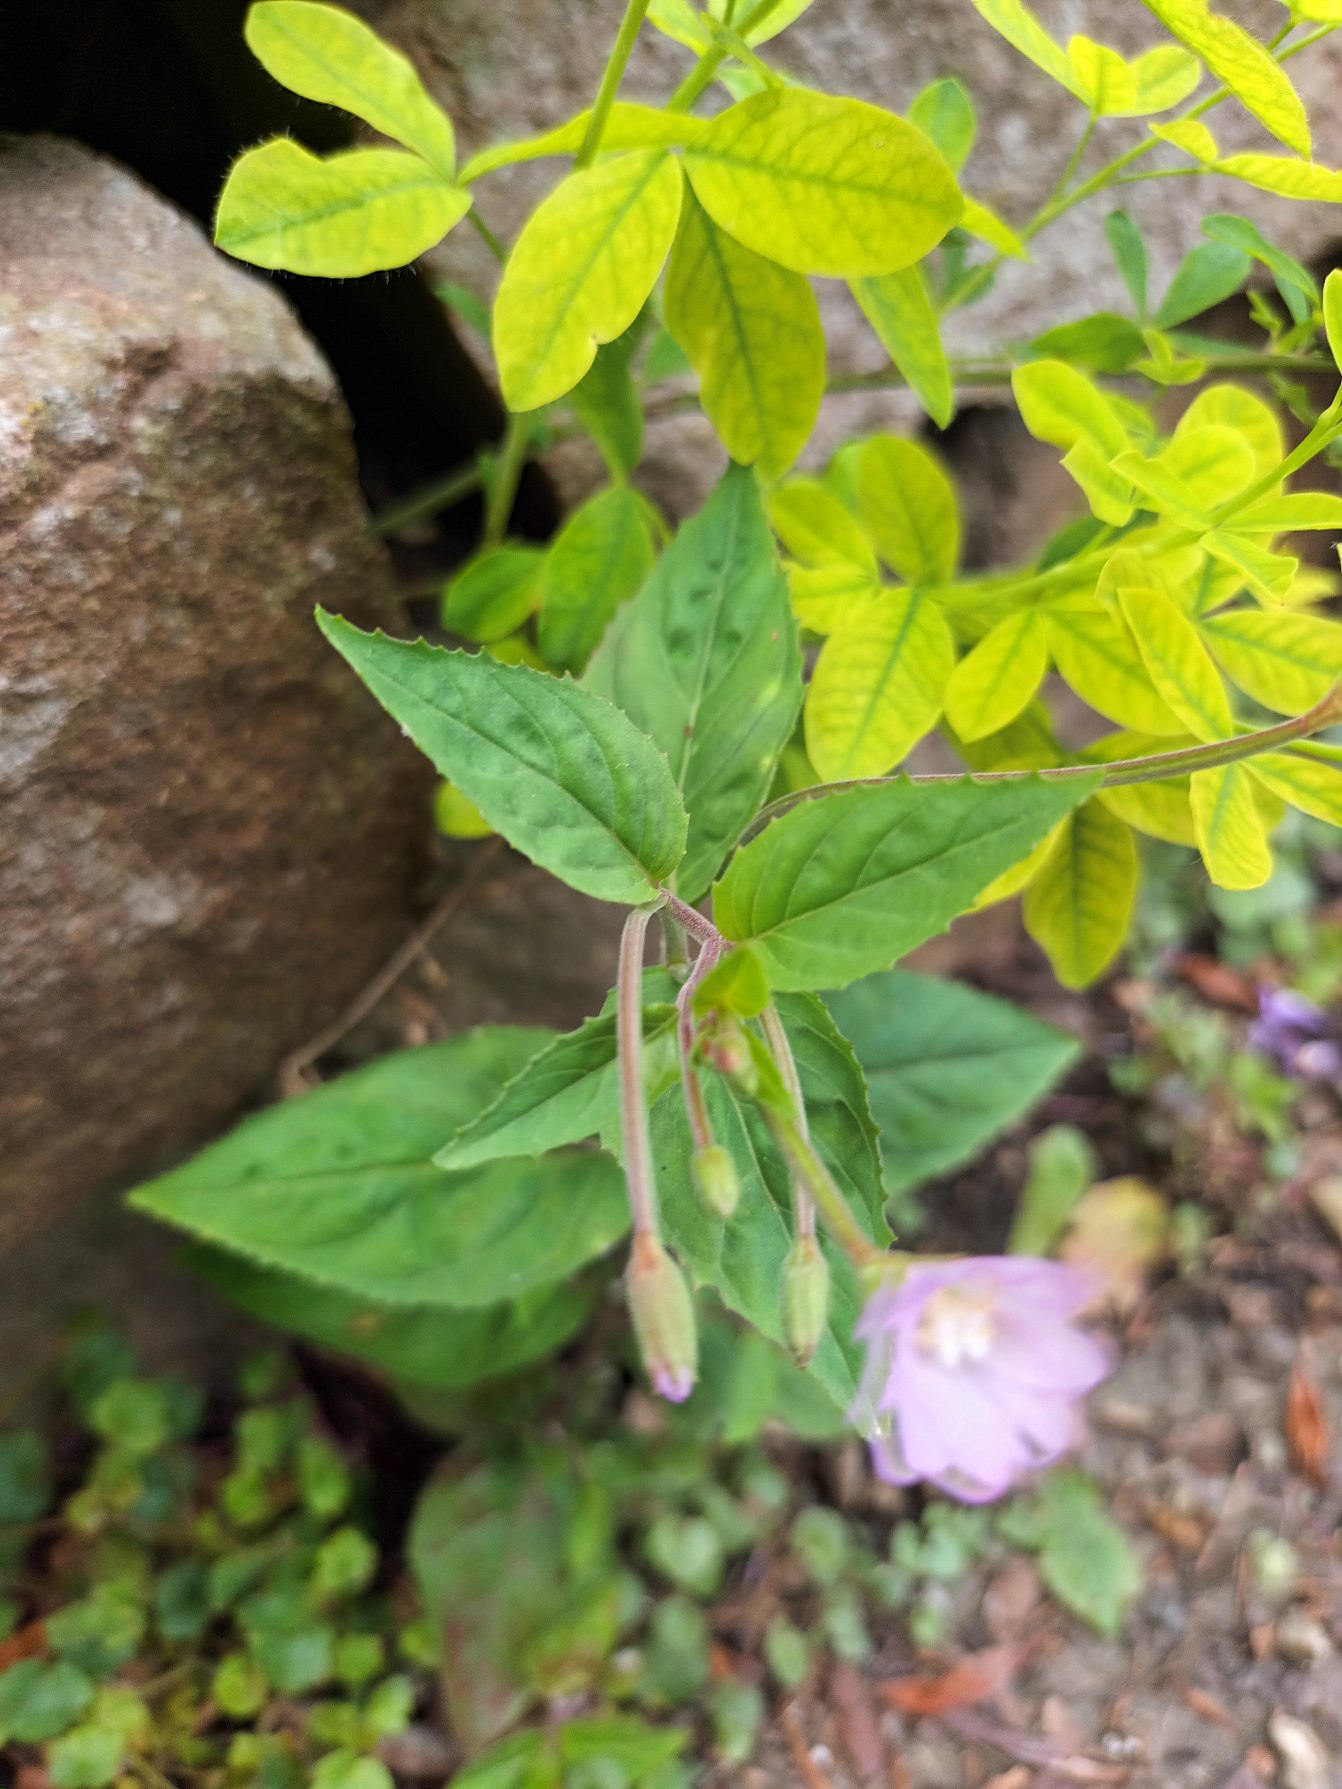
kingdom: Plantae
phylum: Tracheophyta
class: Magnoliopsida
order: Myrtales
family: Onagraceae
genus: Epilobium
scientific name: Epilobium montanum
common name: Glat dueurt
